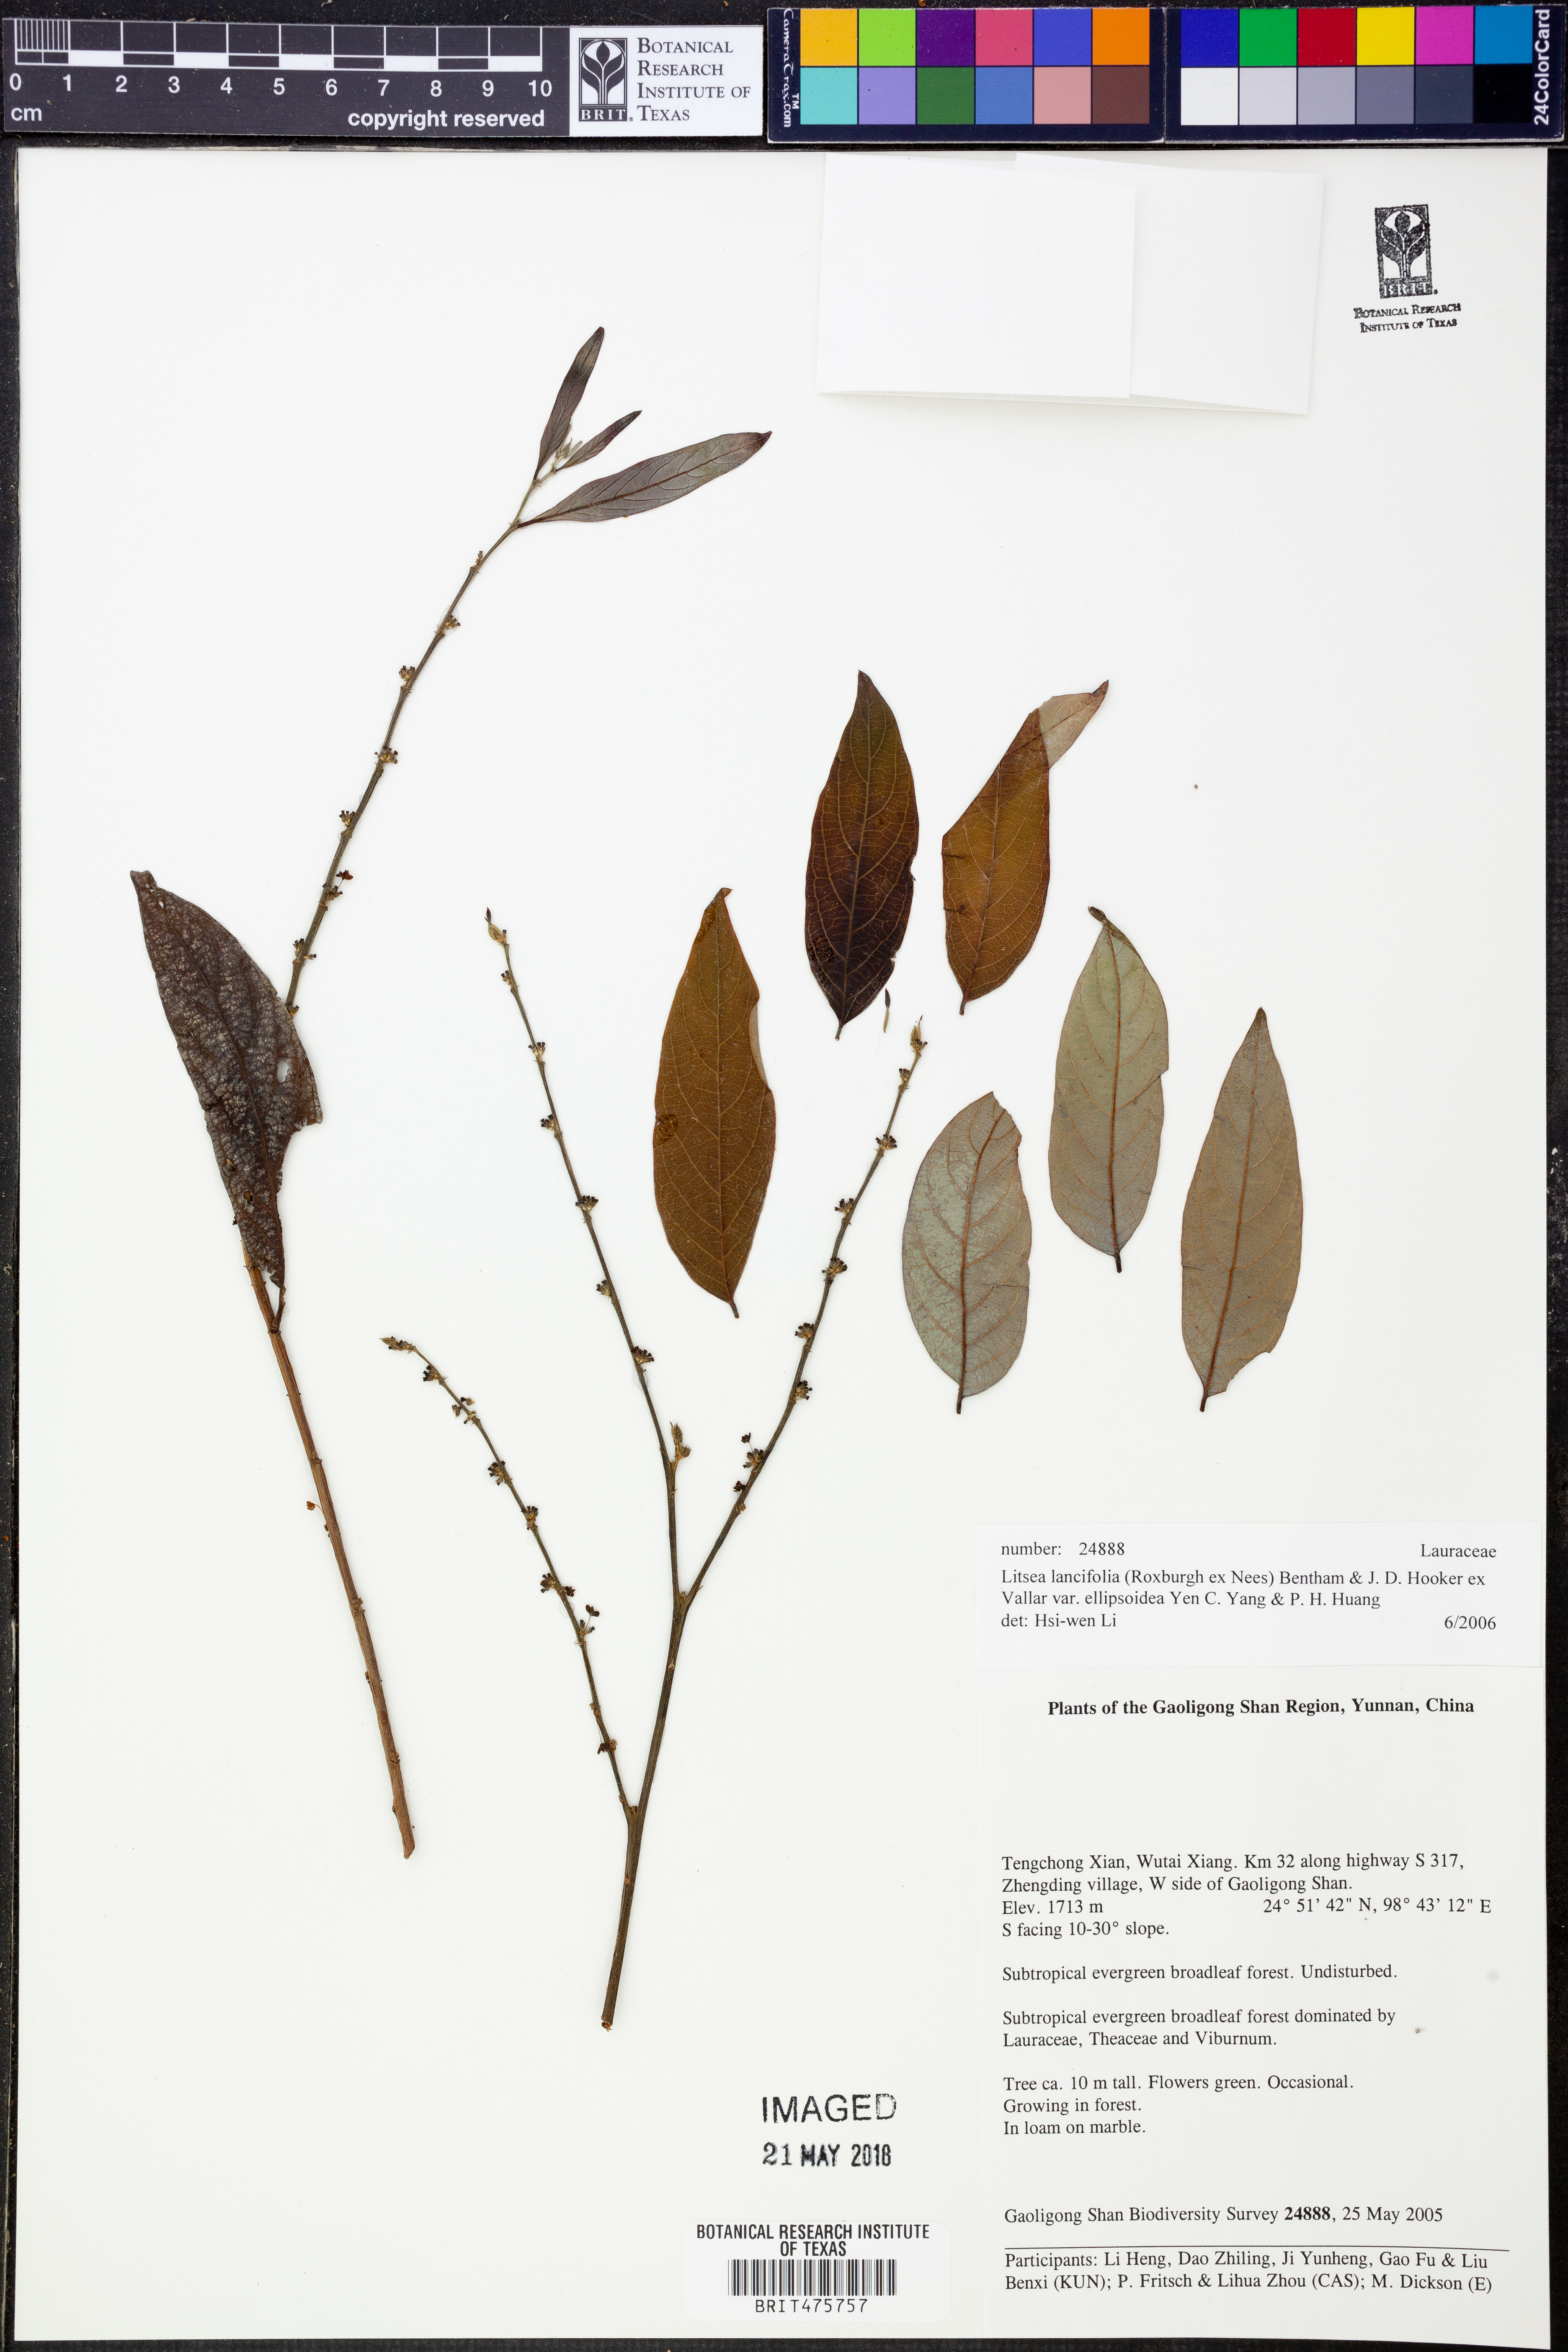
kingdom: Plantae
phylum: Tracheophyta
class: Magnoliopsida
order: Laurales
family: Lauraceae
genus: Litsea
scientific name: Litsea lancifolia
